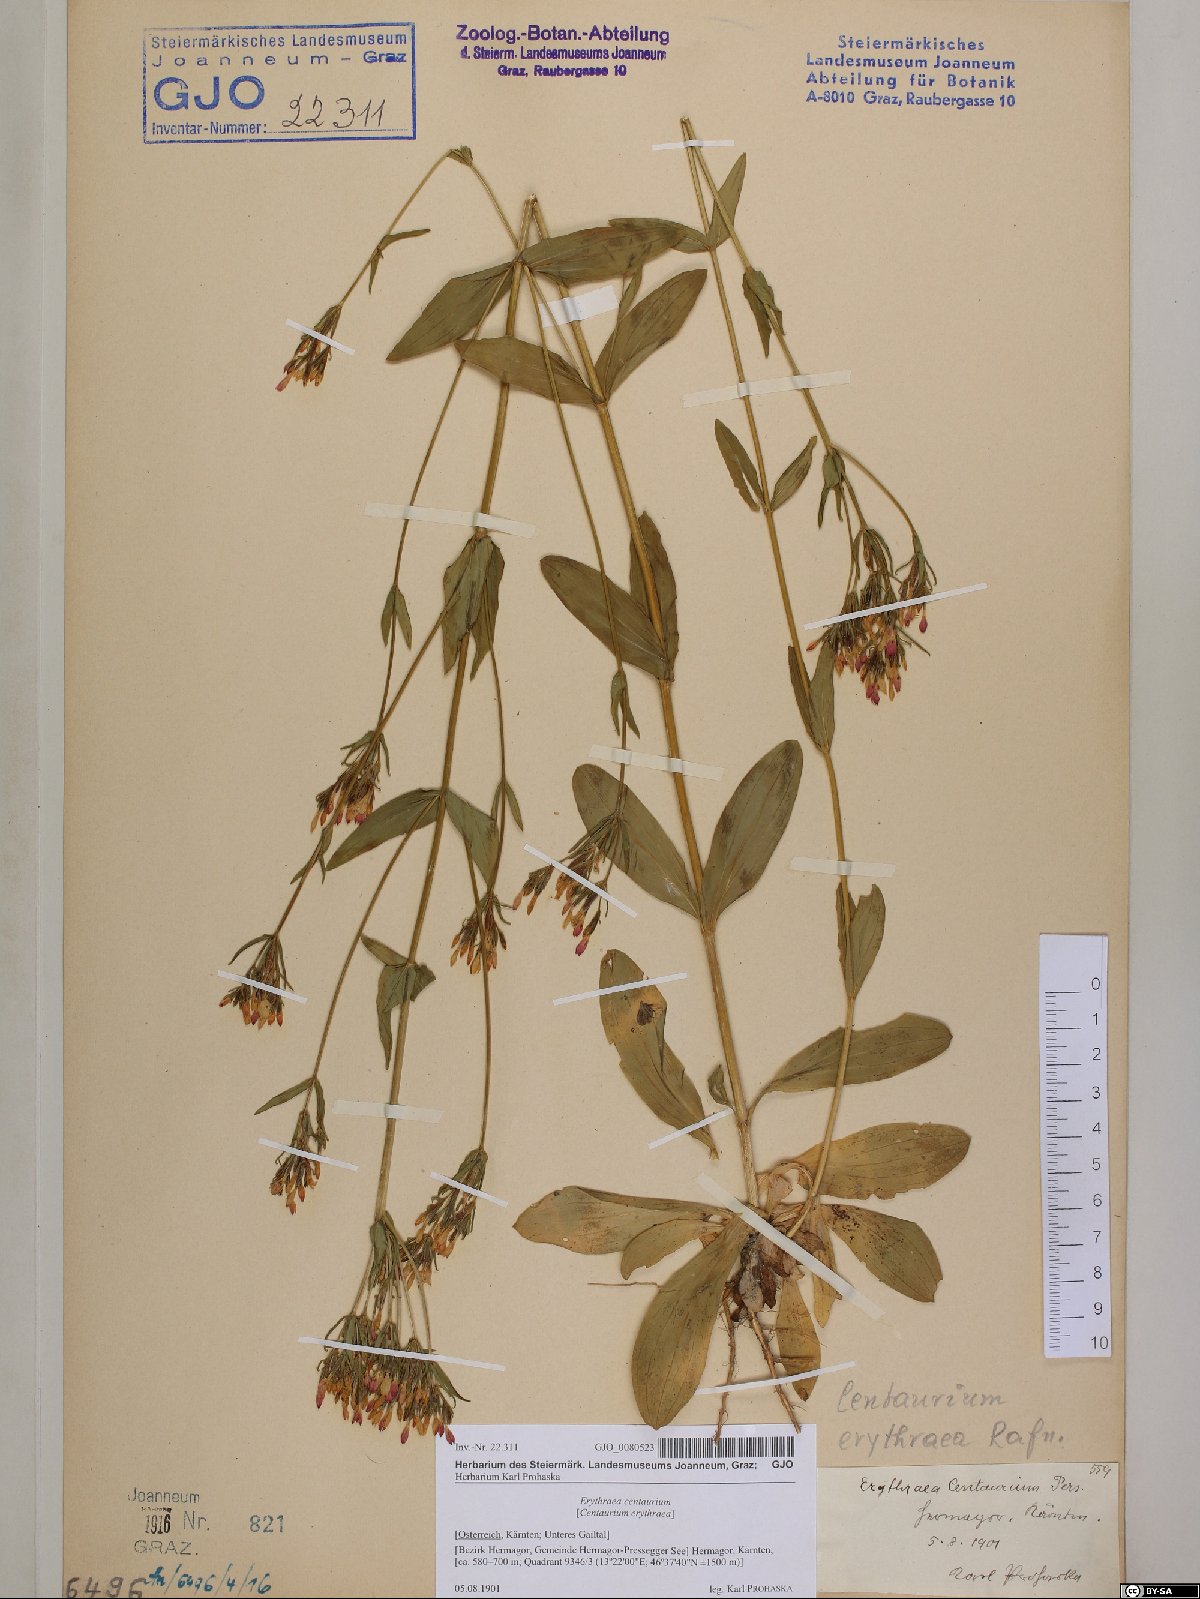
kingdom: Plantae
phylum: Tracheophyta
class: Magnoliopsida
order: Gentianales
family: Gentianaceae
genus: Centaurium
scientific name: Centaurium erythraea
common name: Common centaury
